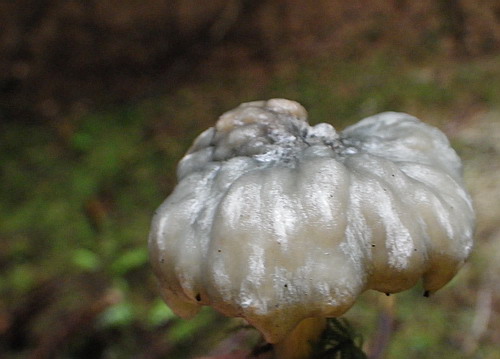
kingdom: Fungi
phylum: Basidiomycota
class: Agaricomycetes
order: Agaricales
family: Tricholomataceae
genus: Clitocybe
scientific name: Clitocybe odora
